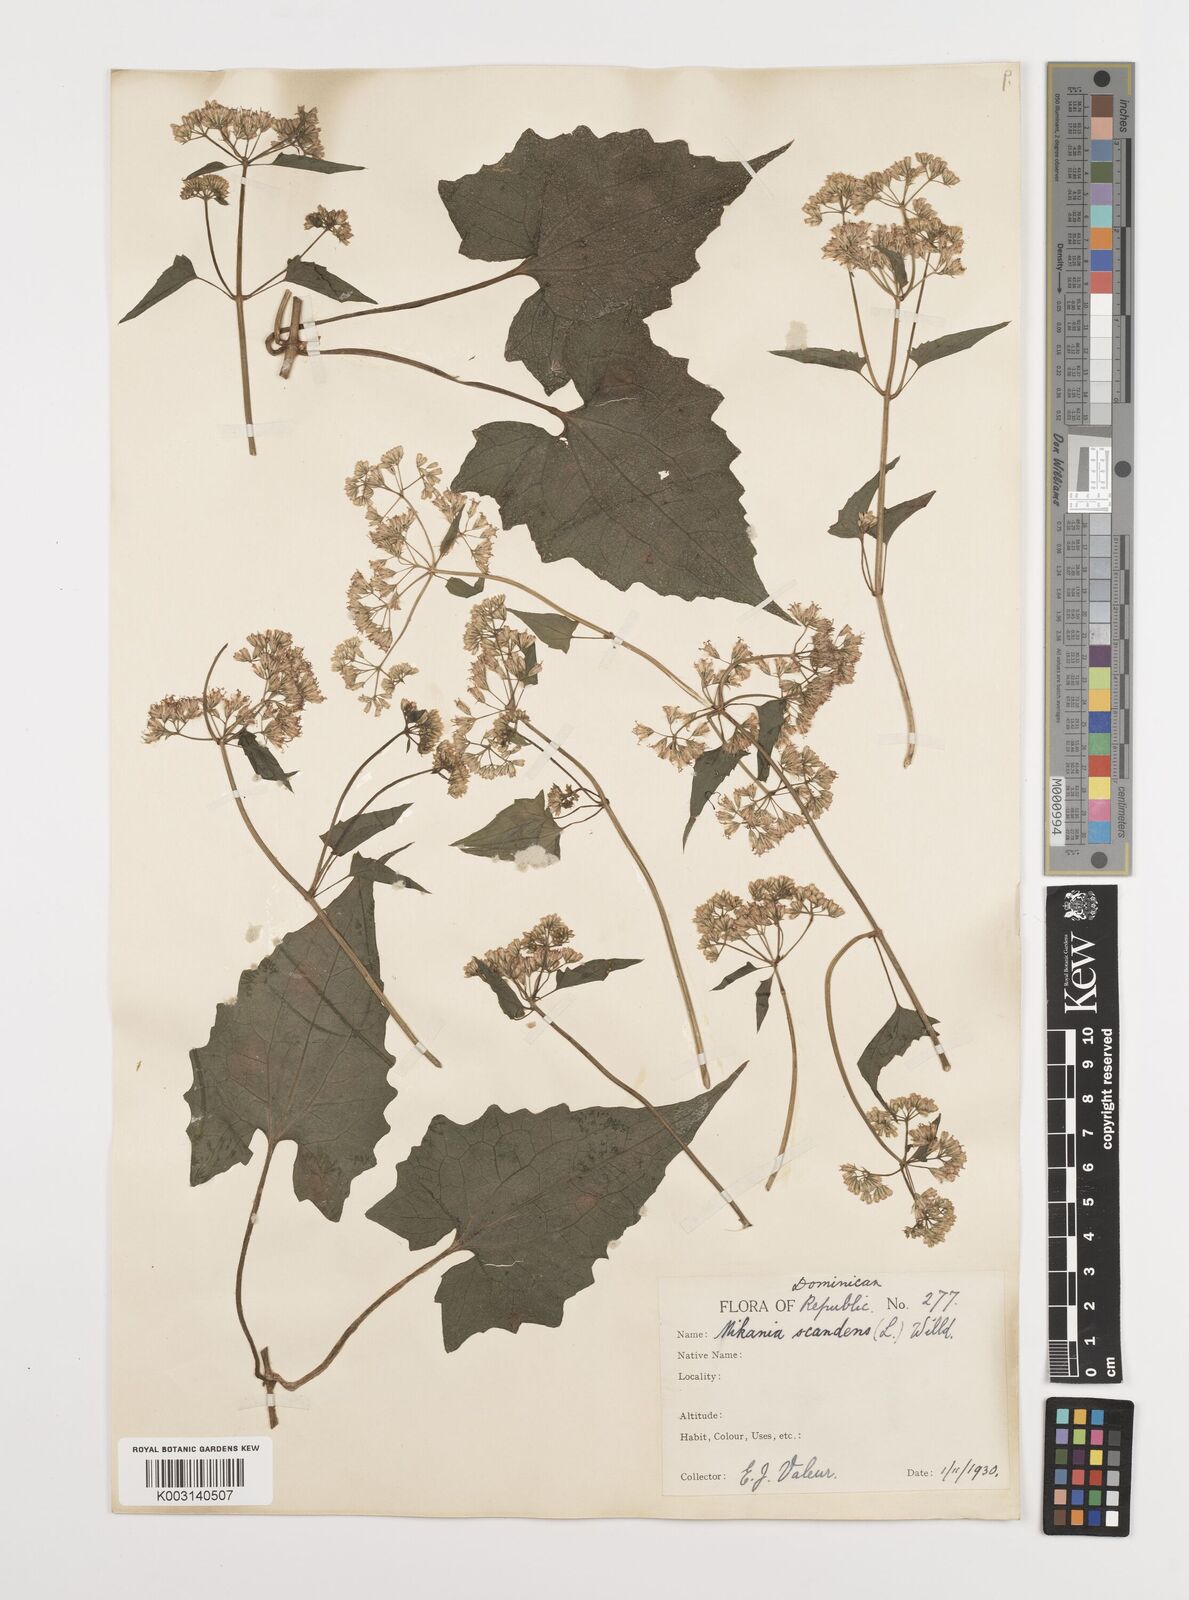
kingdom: Plantae
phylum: Tracheophyta
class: Magnoliopsida
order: Asterales
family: Asteraceae
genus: Mikania
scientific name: Mikania micrantha
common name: Mile-a-minute
